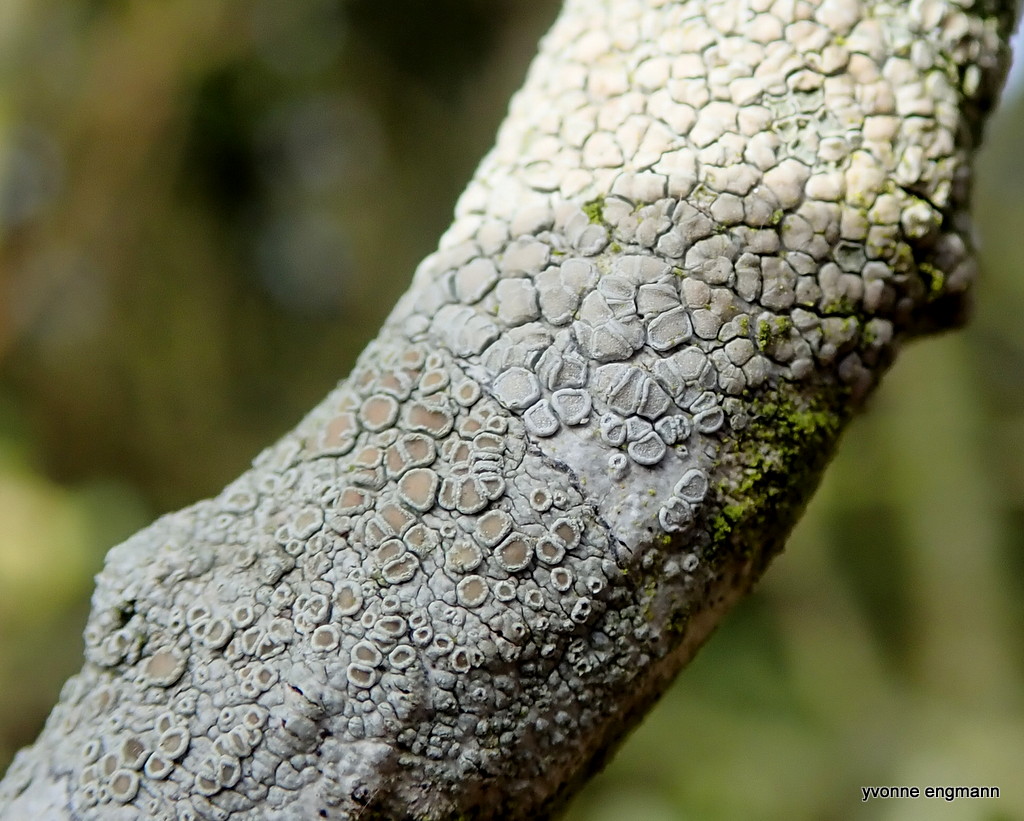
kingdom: Fungi
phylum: Ascomycota
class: Lecanoromycetes
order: Lecanorales
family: Lecanoraceae
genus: Lecanora
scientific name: Lecanora chlarotera
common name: brun kantskivelav
